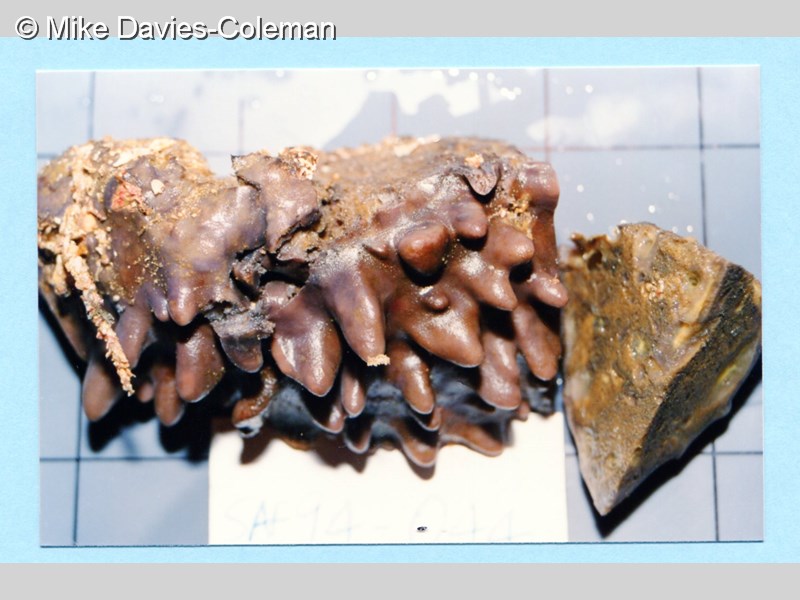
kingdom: Animalia
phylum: Porifera
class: Demospongiae
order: Clionaida
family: Spirastrellidae
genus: Spirastrella
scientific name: Spirastrella
